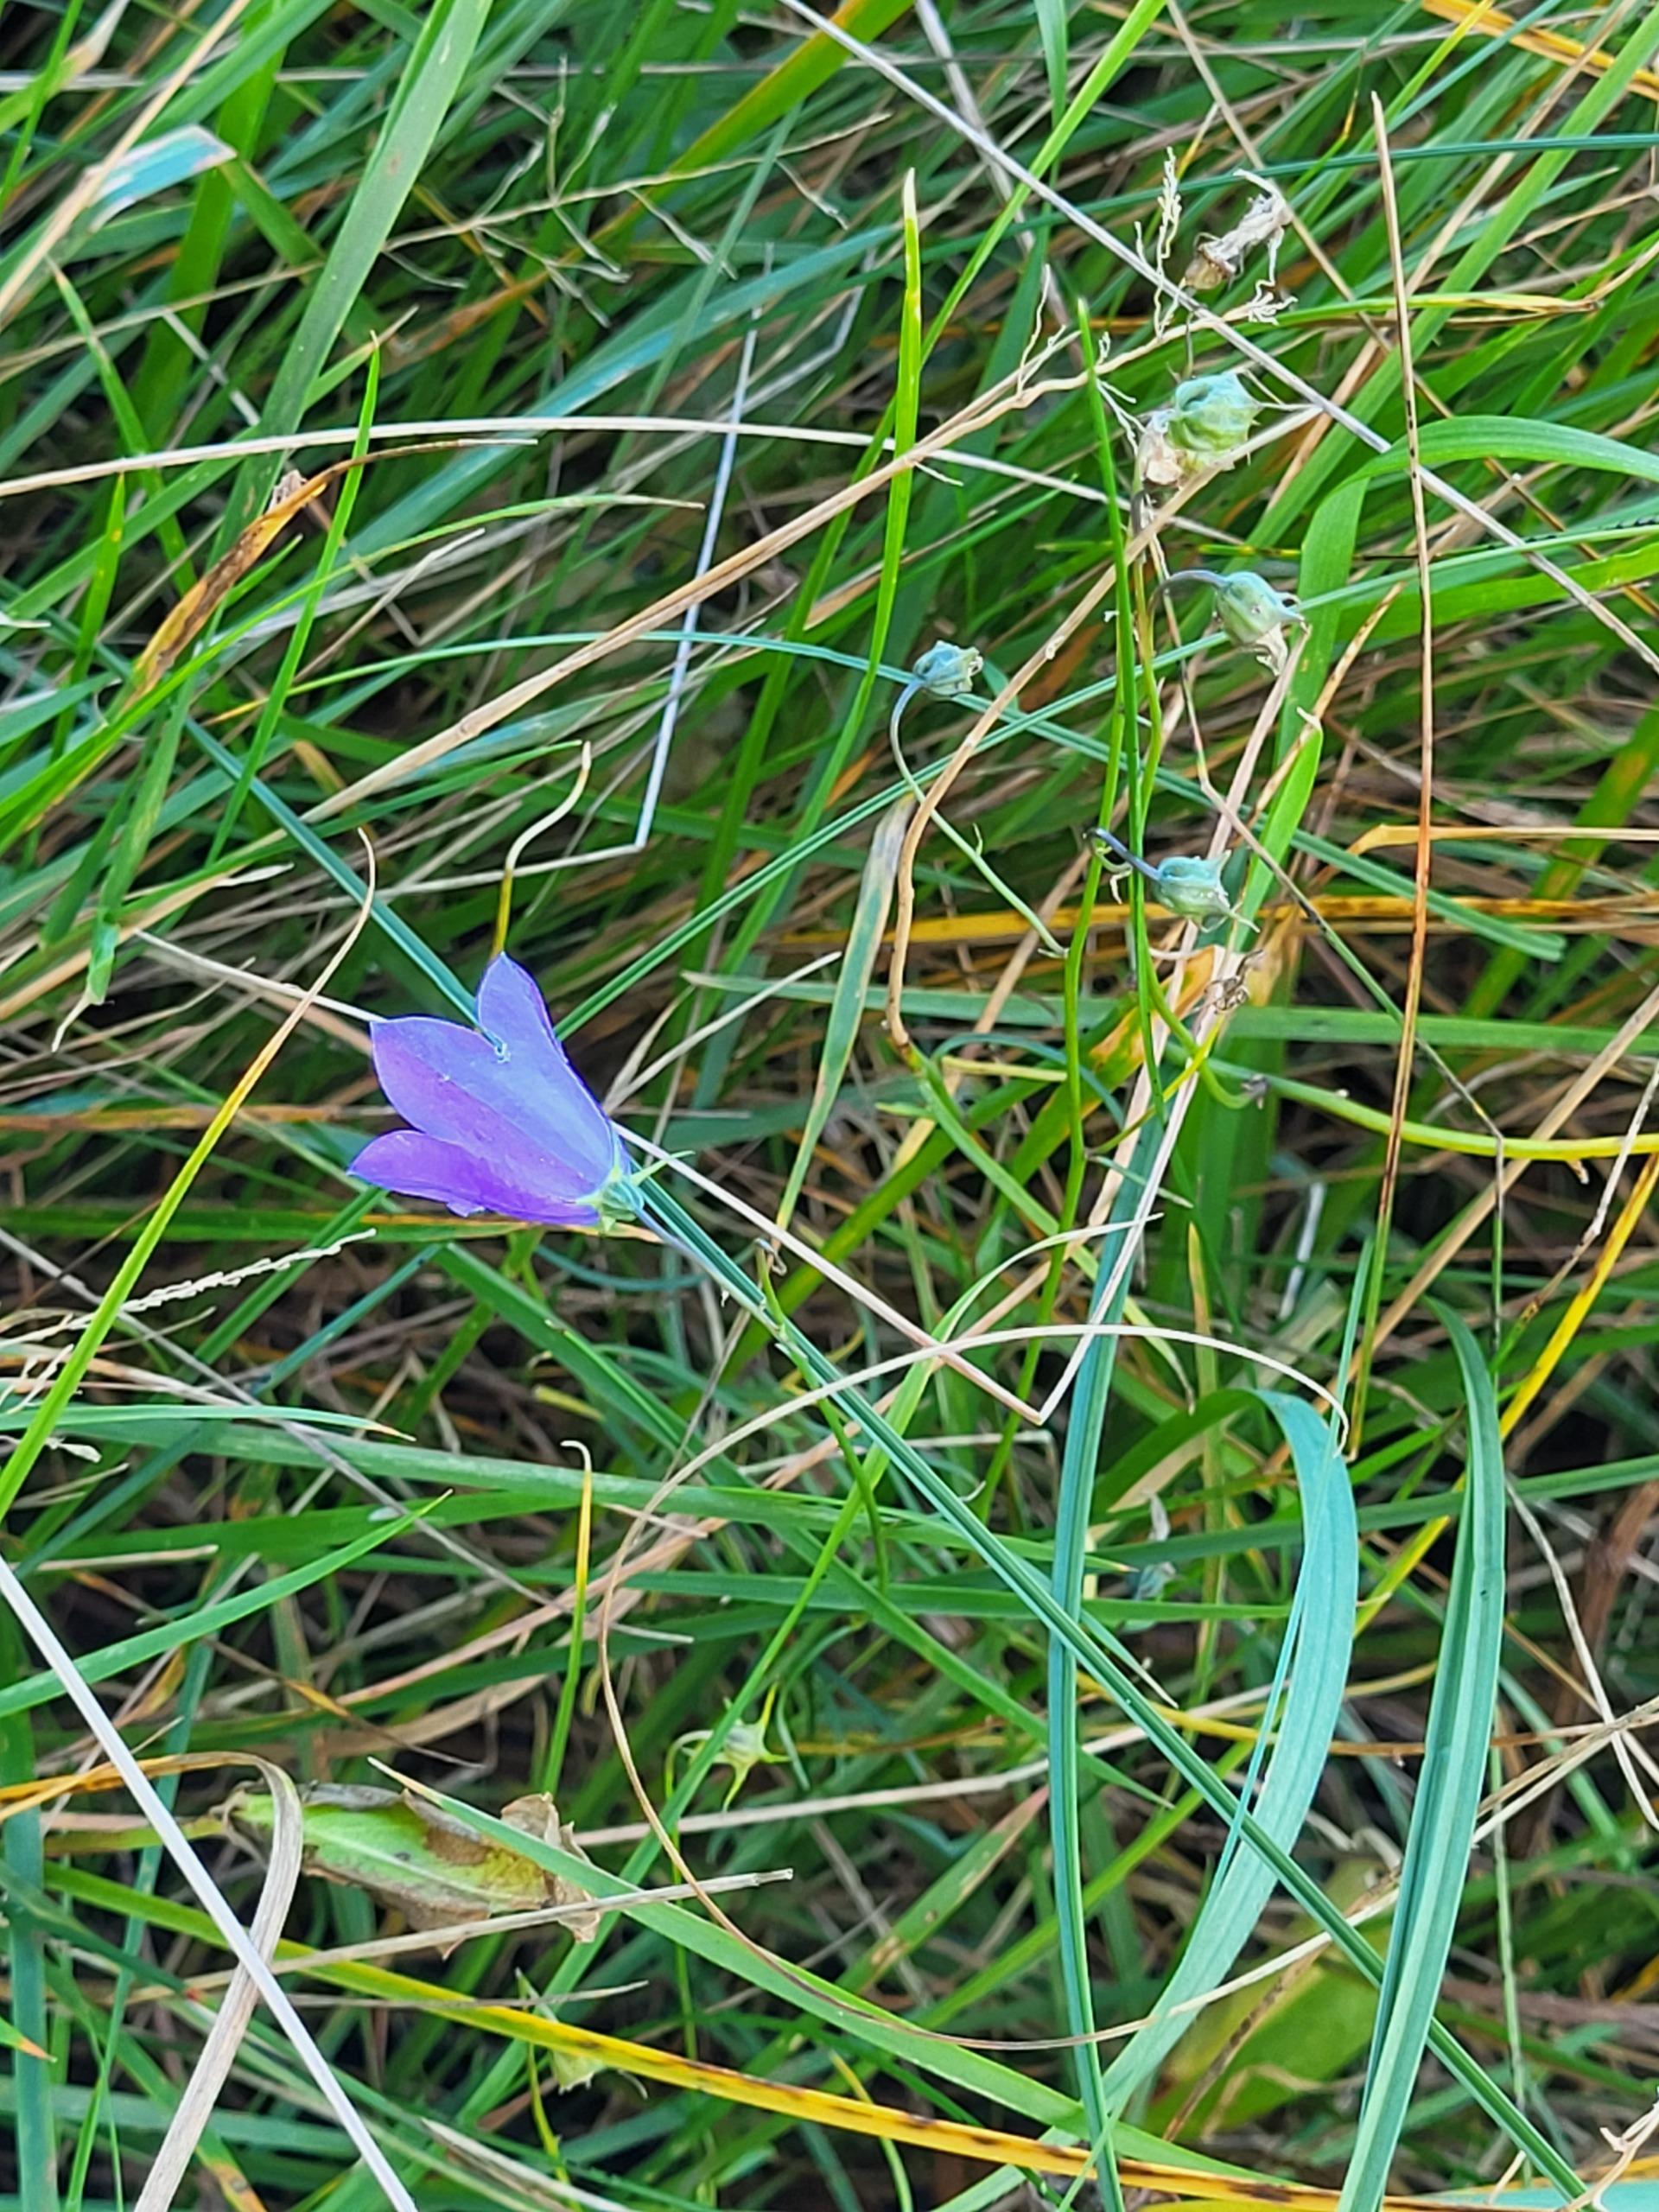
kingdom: Plantae
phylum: Tracheophyta
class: Magnoliopsida
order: Asterales
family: Campanulaceae
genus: Campanula
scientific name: Campanula rotundifolia
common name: Liden klokke
